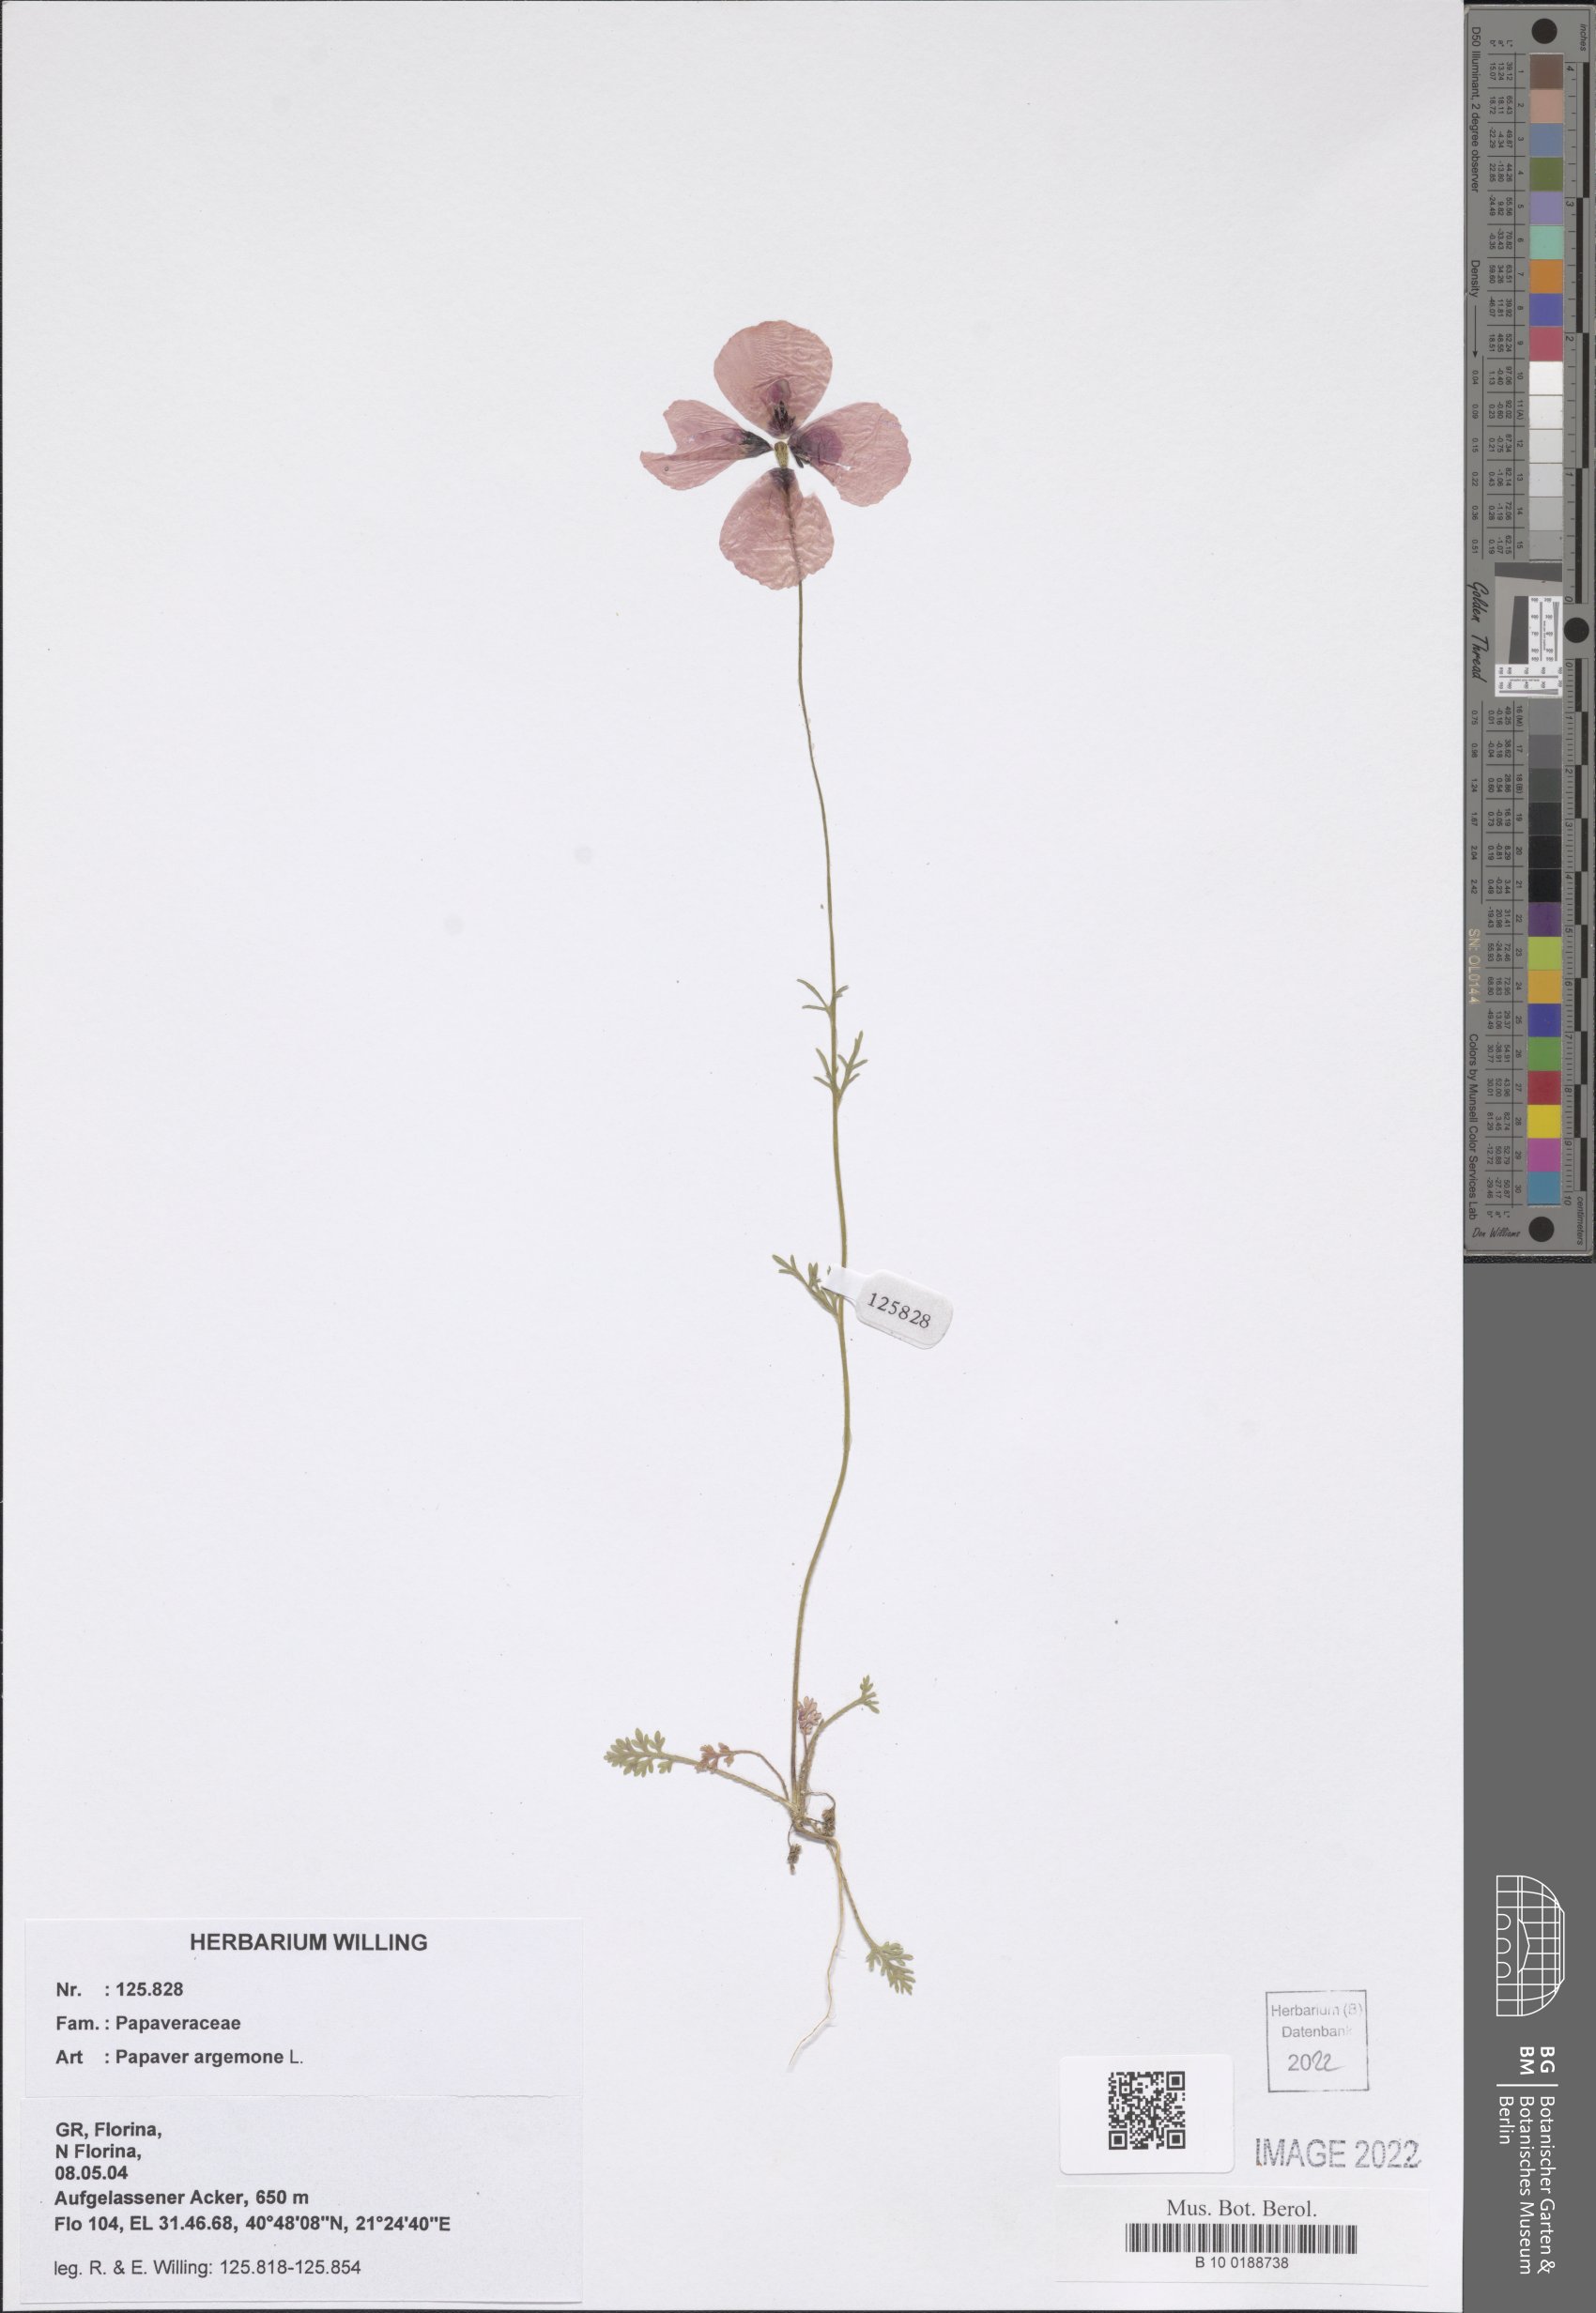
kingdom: Plantae
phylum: Tracheophyta
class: Magnoliopsida
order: Ranunculales
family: Papaveraceae
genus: Roemeria
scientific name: Roemeria argemone
